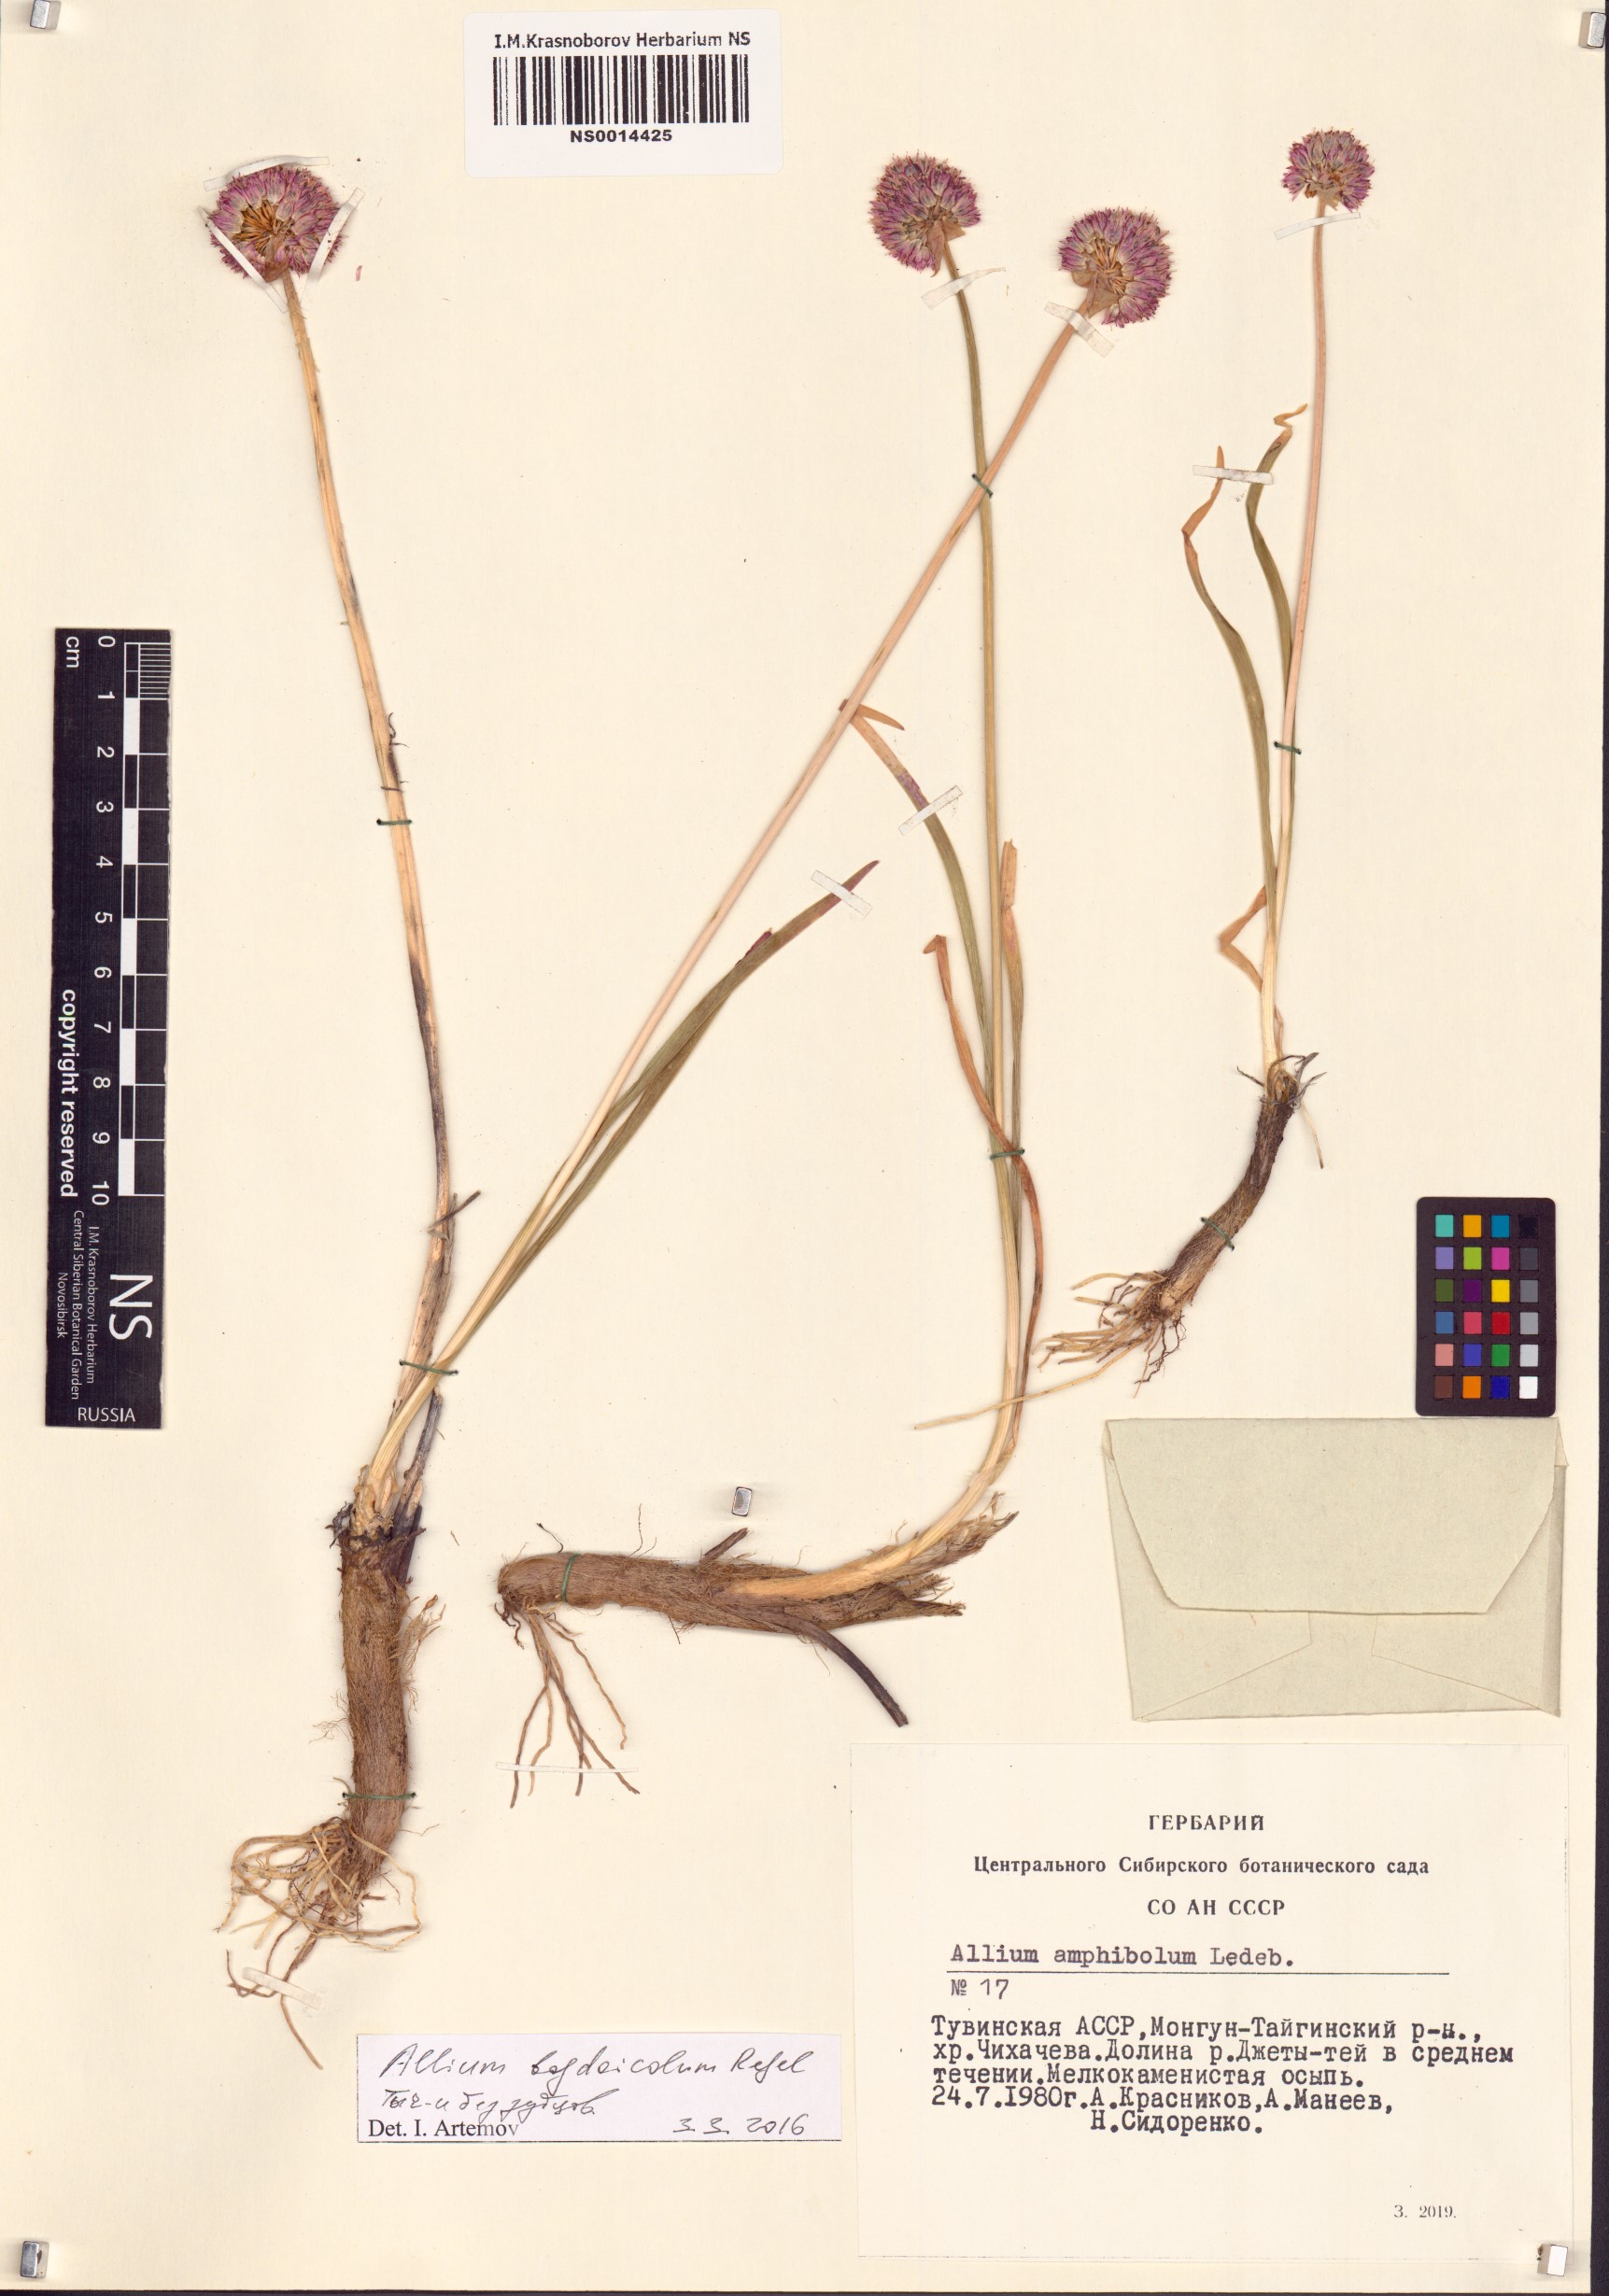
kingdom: Plantae
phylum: Tracheophyta
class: Liliopsida
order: Asparagales
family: Amaryllidaceae
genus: Allium
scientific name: Allium schrenkii
